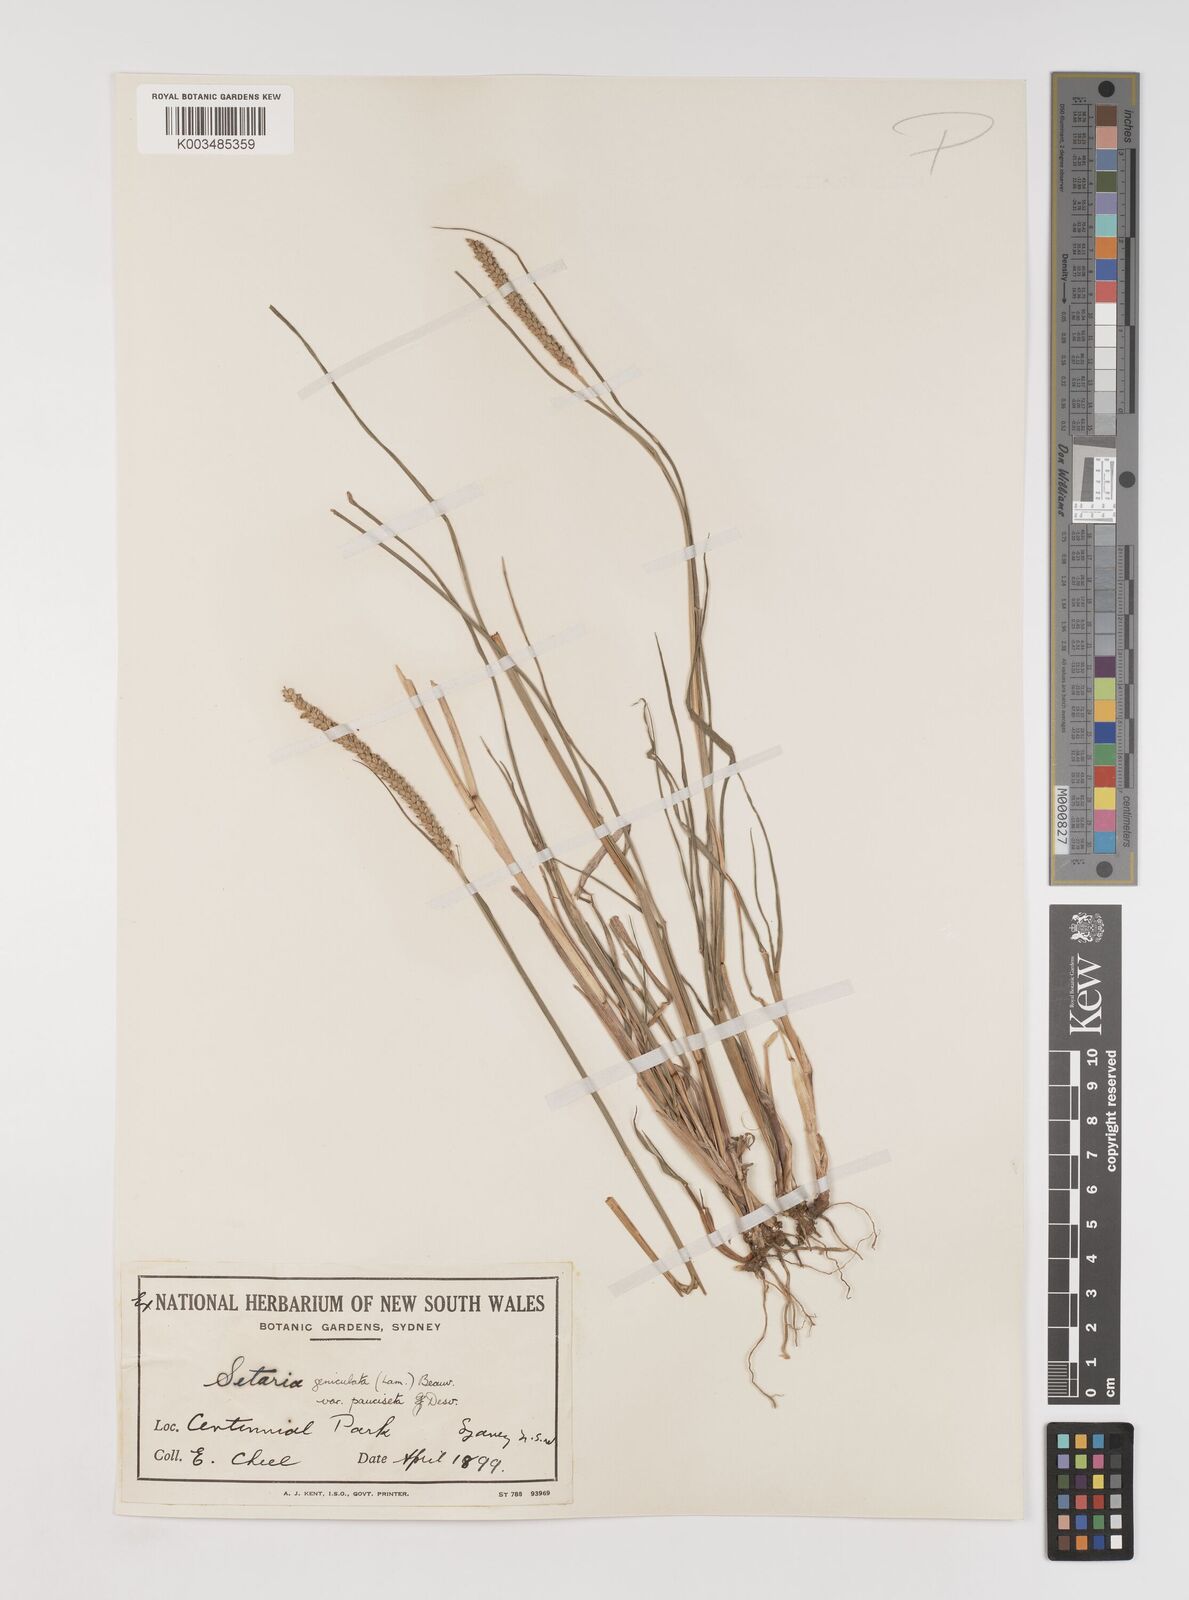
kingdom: Plantae
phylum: Tracheophyta
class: Liliopsida
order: Poales
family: Poaceae
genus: Setaria
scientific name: Setaria parviflora
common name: Knotroot bristle-grass
